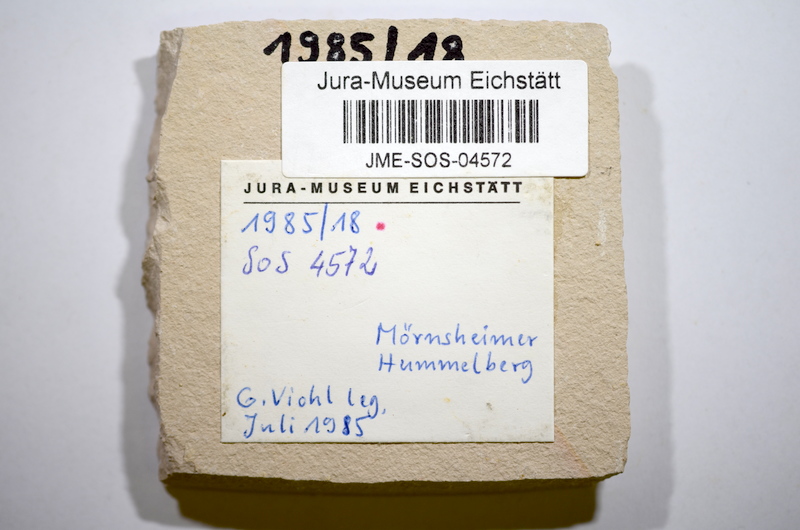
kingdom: Animalia
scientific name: Animalia
